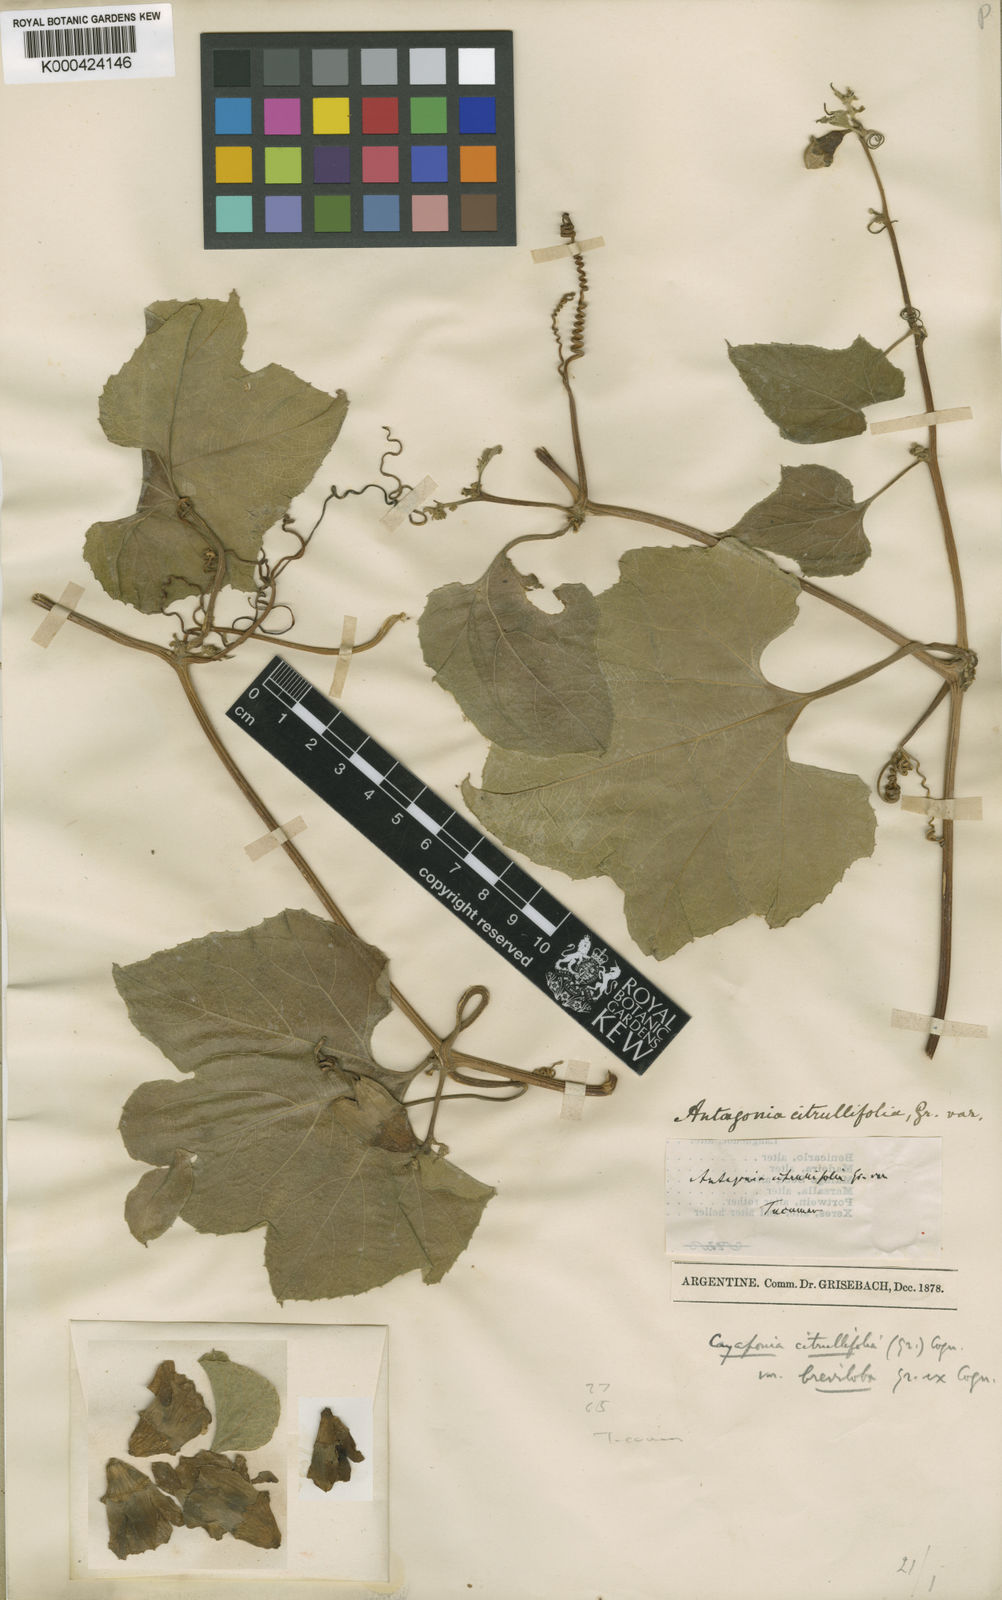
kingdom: Plantae
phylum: Tracheophyta
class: Magnoliopsida
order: Cucurbitales
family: Cucurbitaceae
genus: Cayaponia
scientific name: Cayaponia
